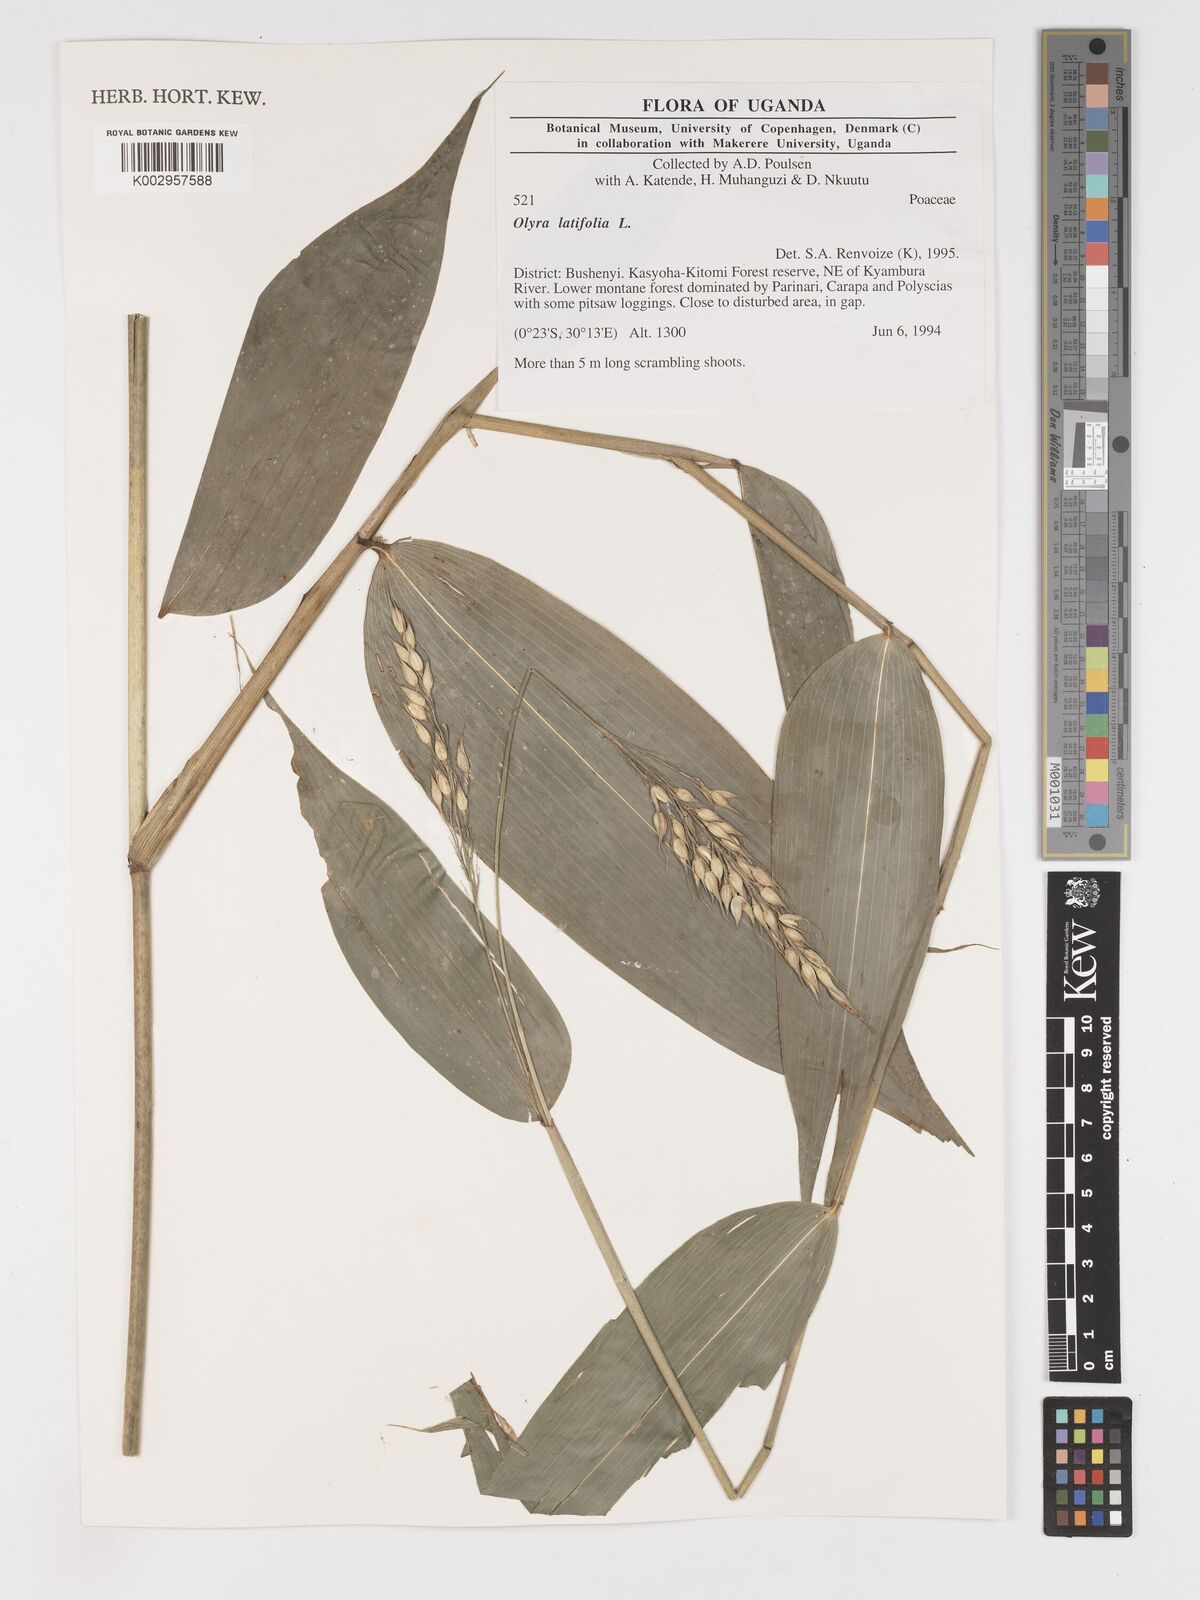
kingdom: Plantae
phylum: Tracheophyta
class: Liliopsida
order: Poales
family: Poaceae
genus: Olyra
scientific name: Olyra latifolia
